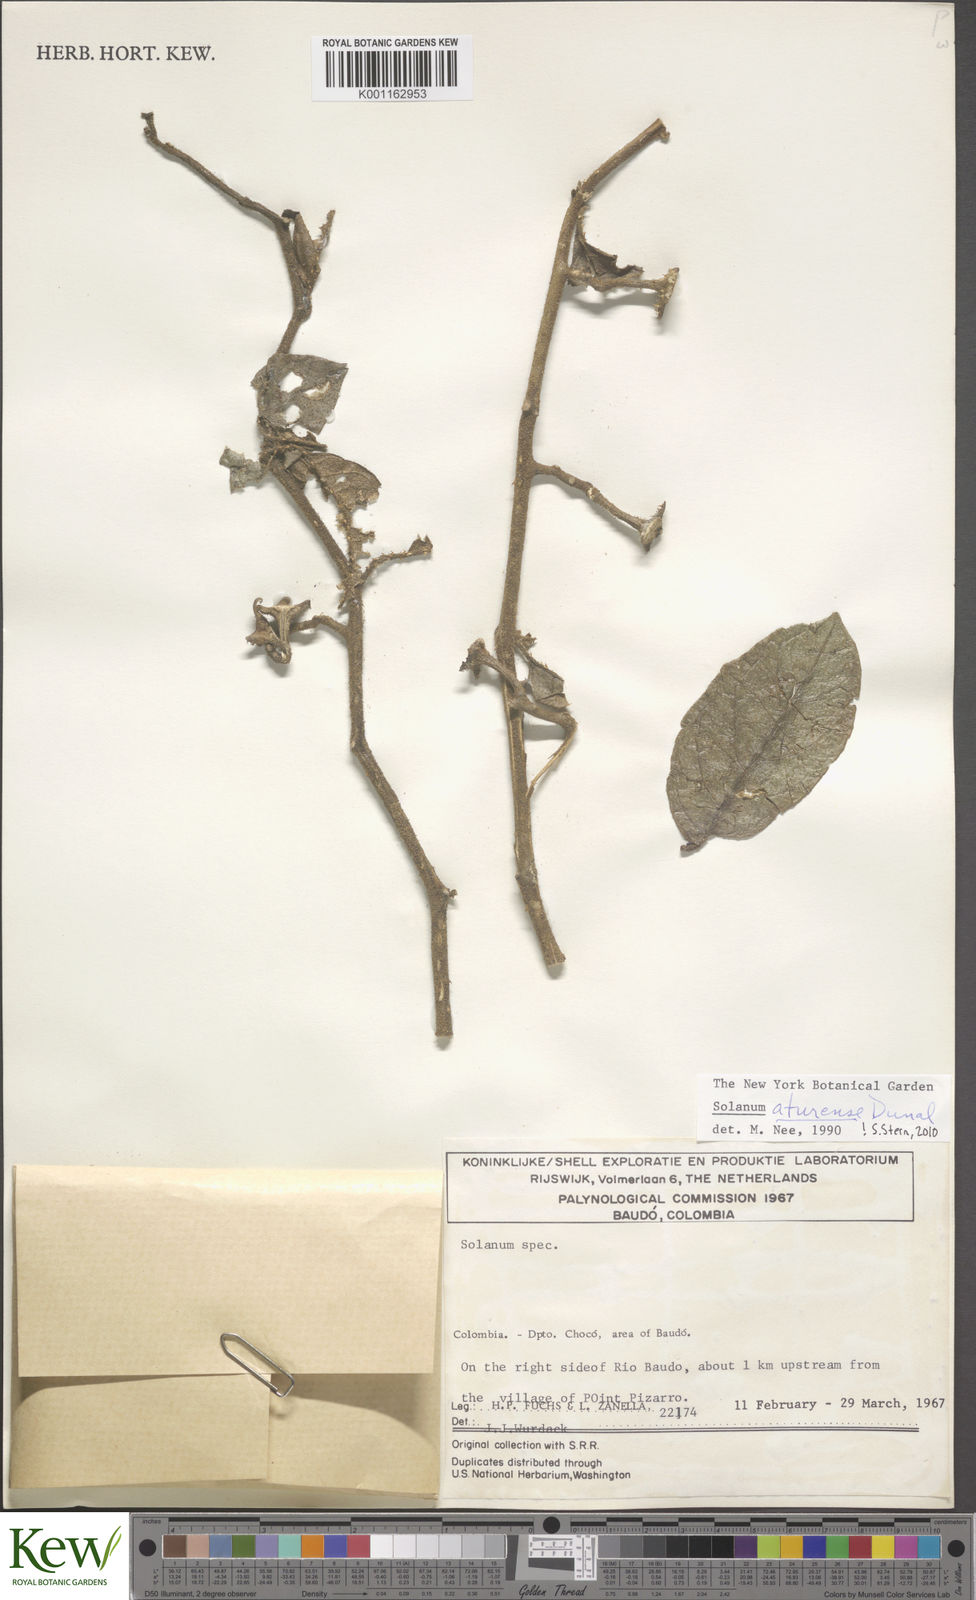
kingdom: Plantae
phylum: Tracheophyta
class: Magnoliopsida
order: Solanales
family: Solanaceae
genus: Solanum
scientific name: Solanum aturense
